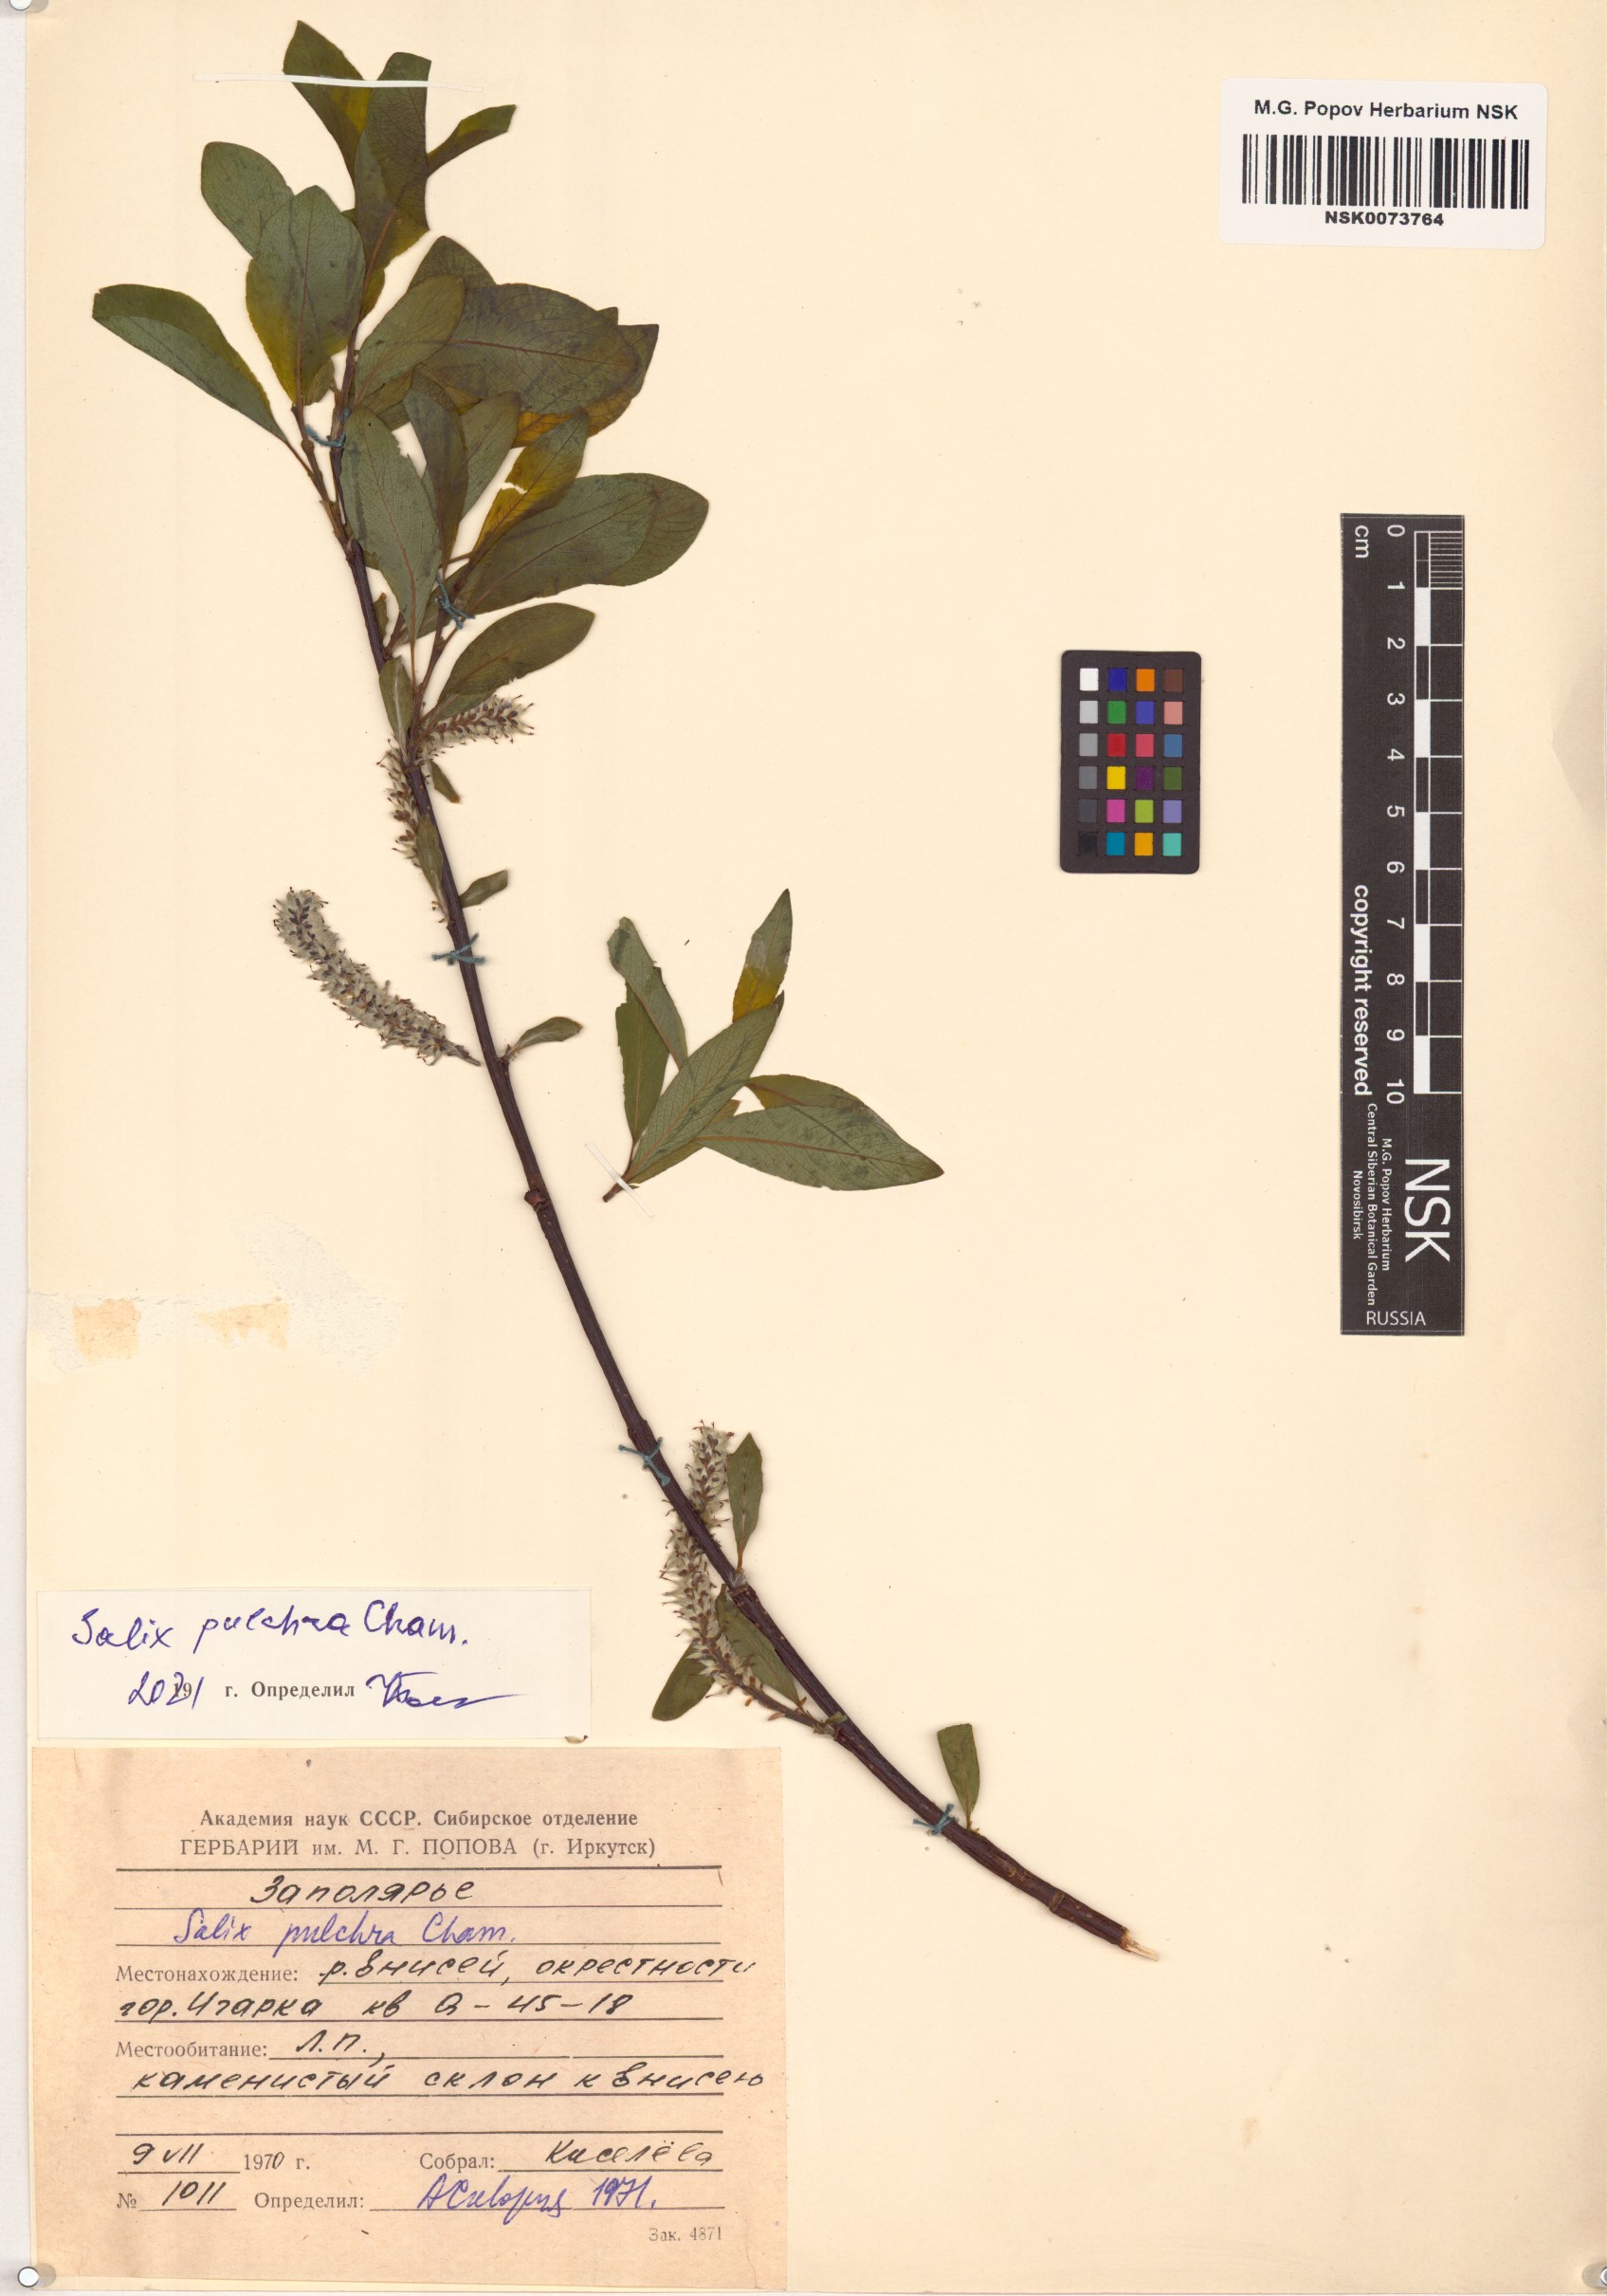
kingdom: Plantae
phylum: Tracheophyta
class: Magnoliopsida
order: Malpighiales
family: Salicaceae
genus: Salix
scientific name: Salix pulchra
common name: Diamond-leaved willow
